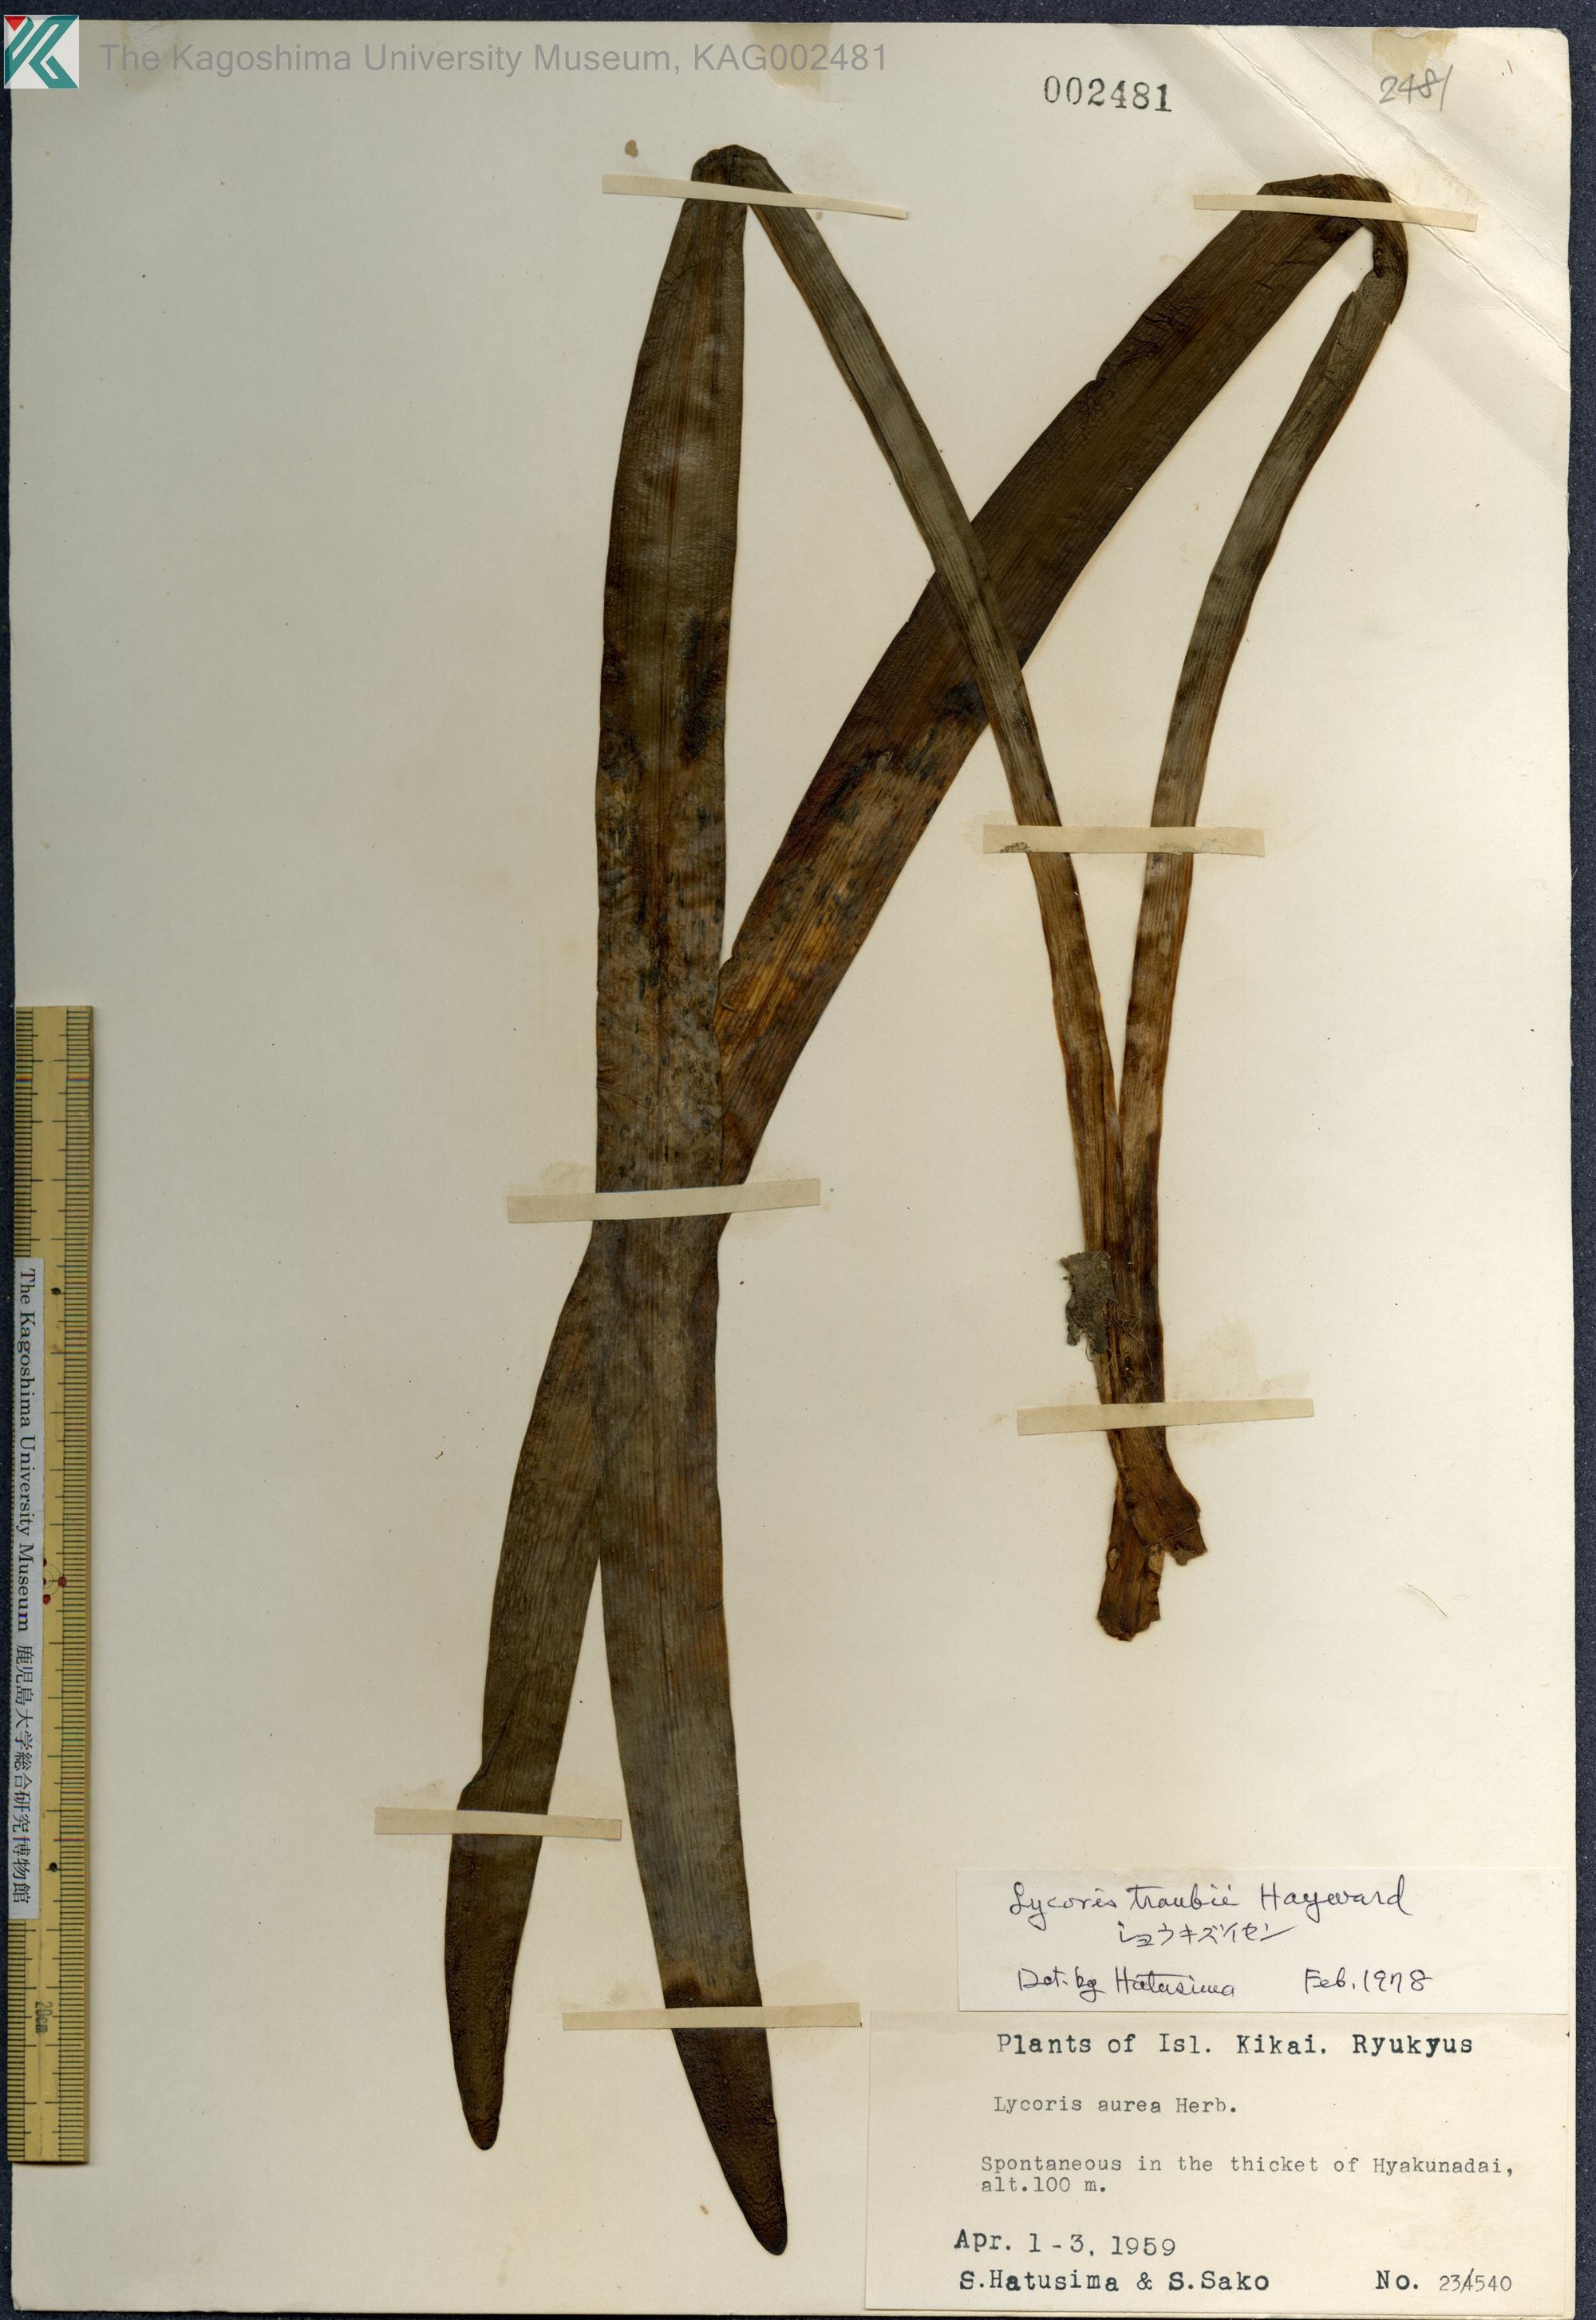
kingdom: Plantae
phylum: Tracheophyta
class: Liliopsida
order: Asparagales
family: Amaryllidaceae
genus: Lycoris
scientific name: Lycoris traubii
